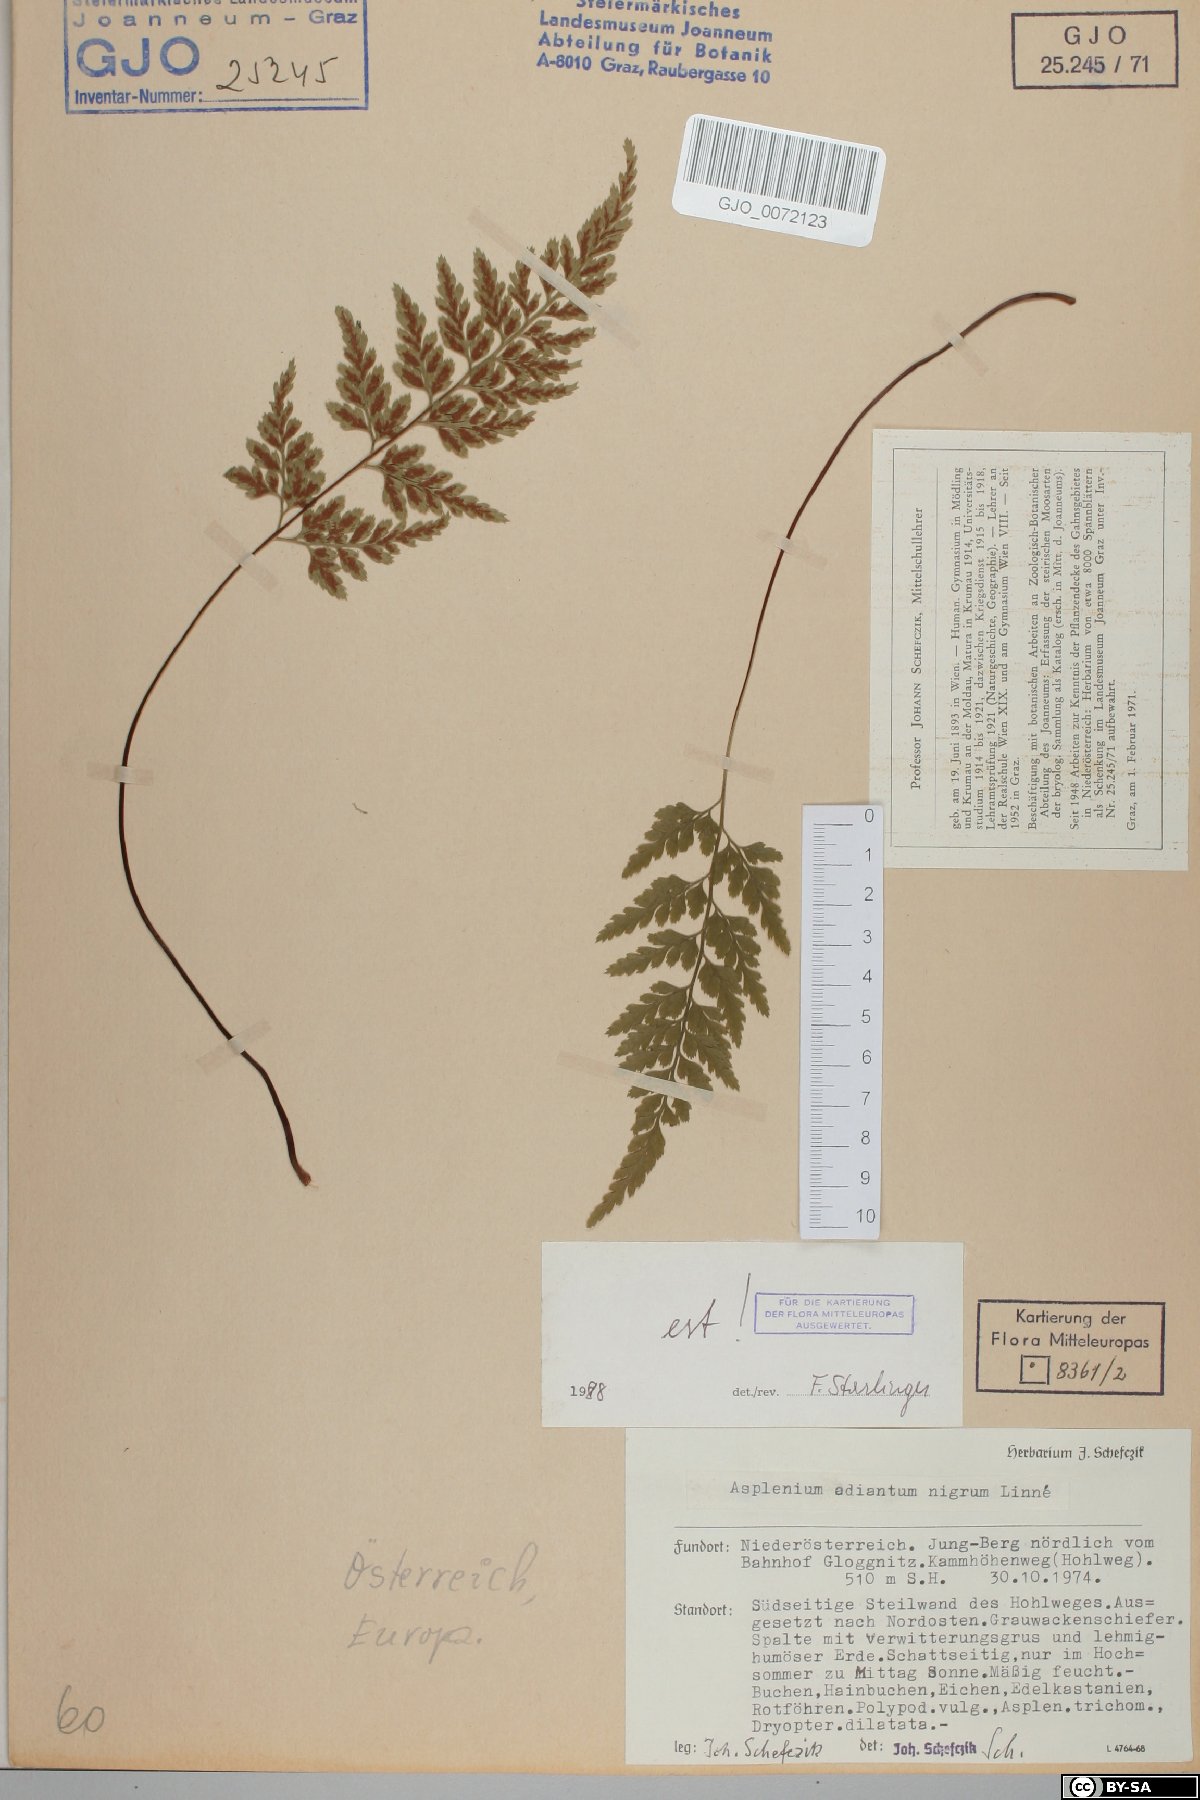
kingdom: Plantae
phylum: Tracheophyta
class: Polypodiopsida
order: Polypodiales
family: Aspleniaceae
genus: Asplenium
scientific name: Asplenium adiantum-nigrum
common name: Black spleenwort
